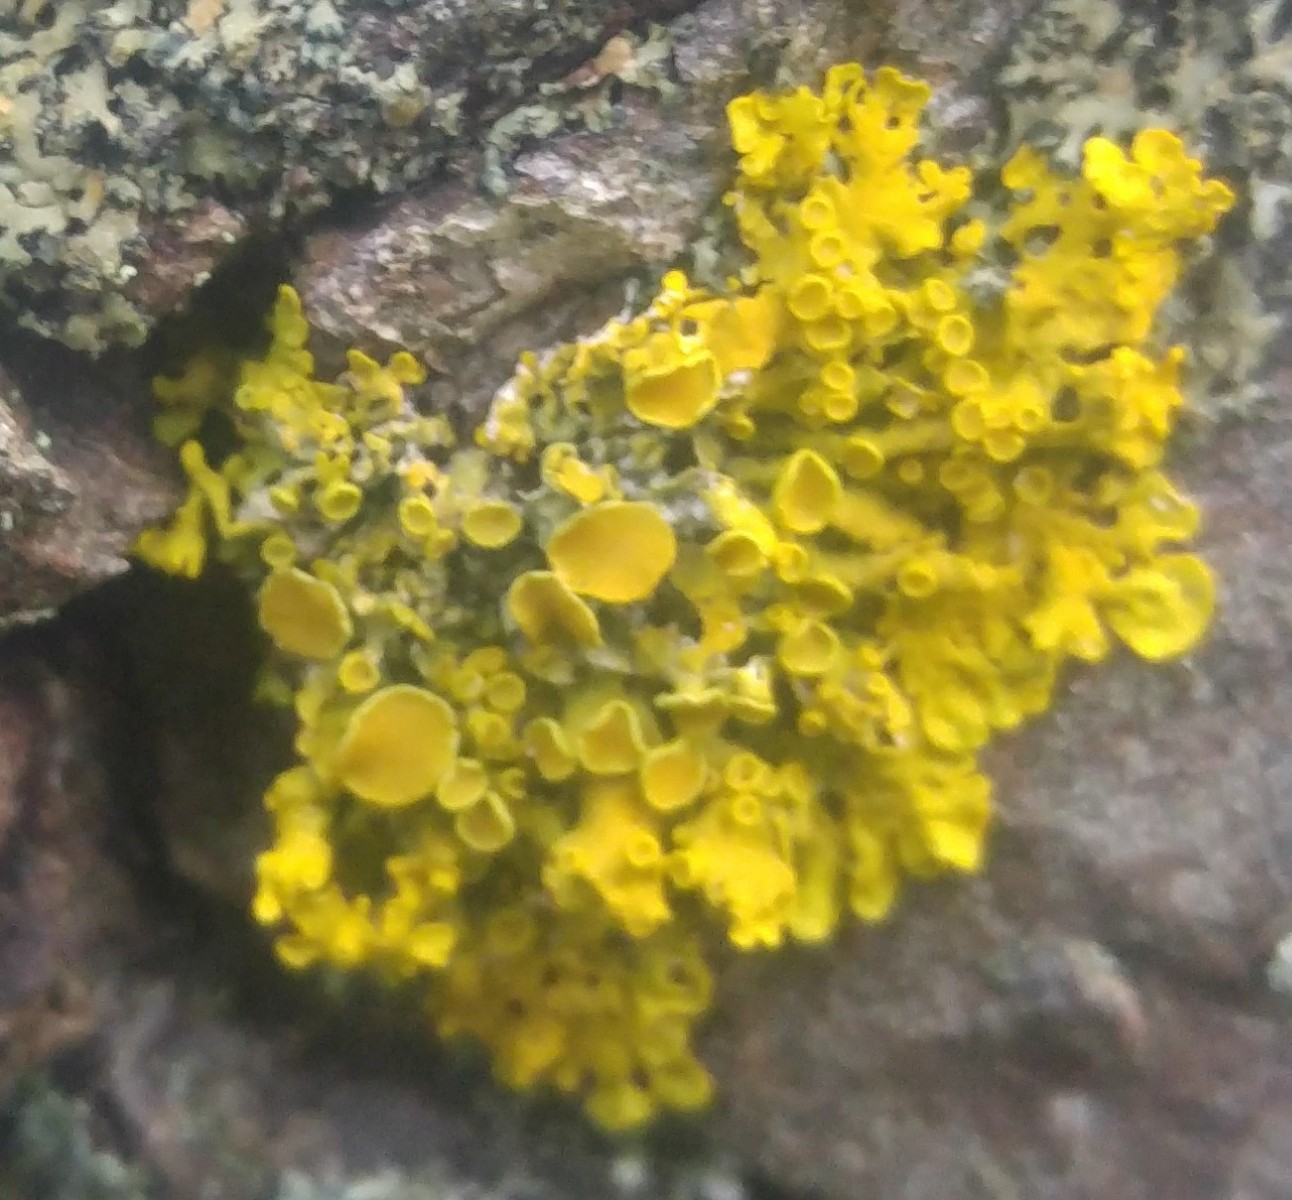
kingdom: Fungi
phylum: Ascomycota
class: Lecanoromycetes
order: Teloschistales
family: Teloschistaceae
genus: Xanthoria
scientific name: Xanthoria parietina
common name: almindelig væggelav
